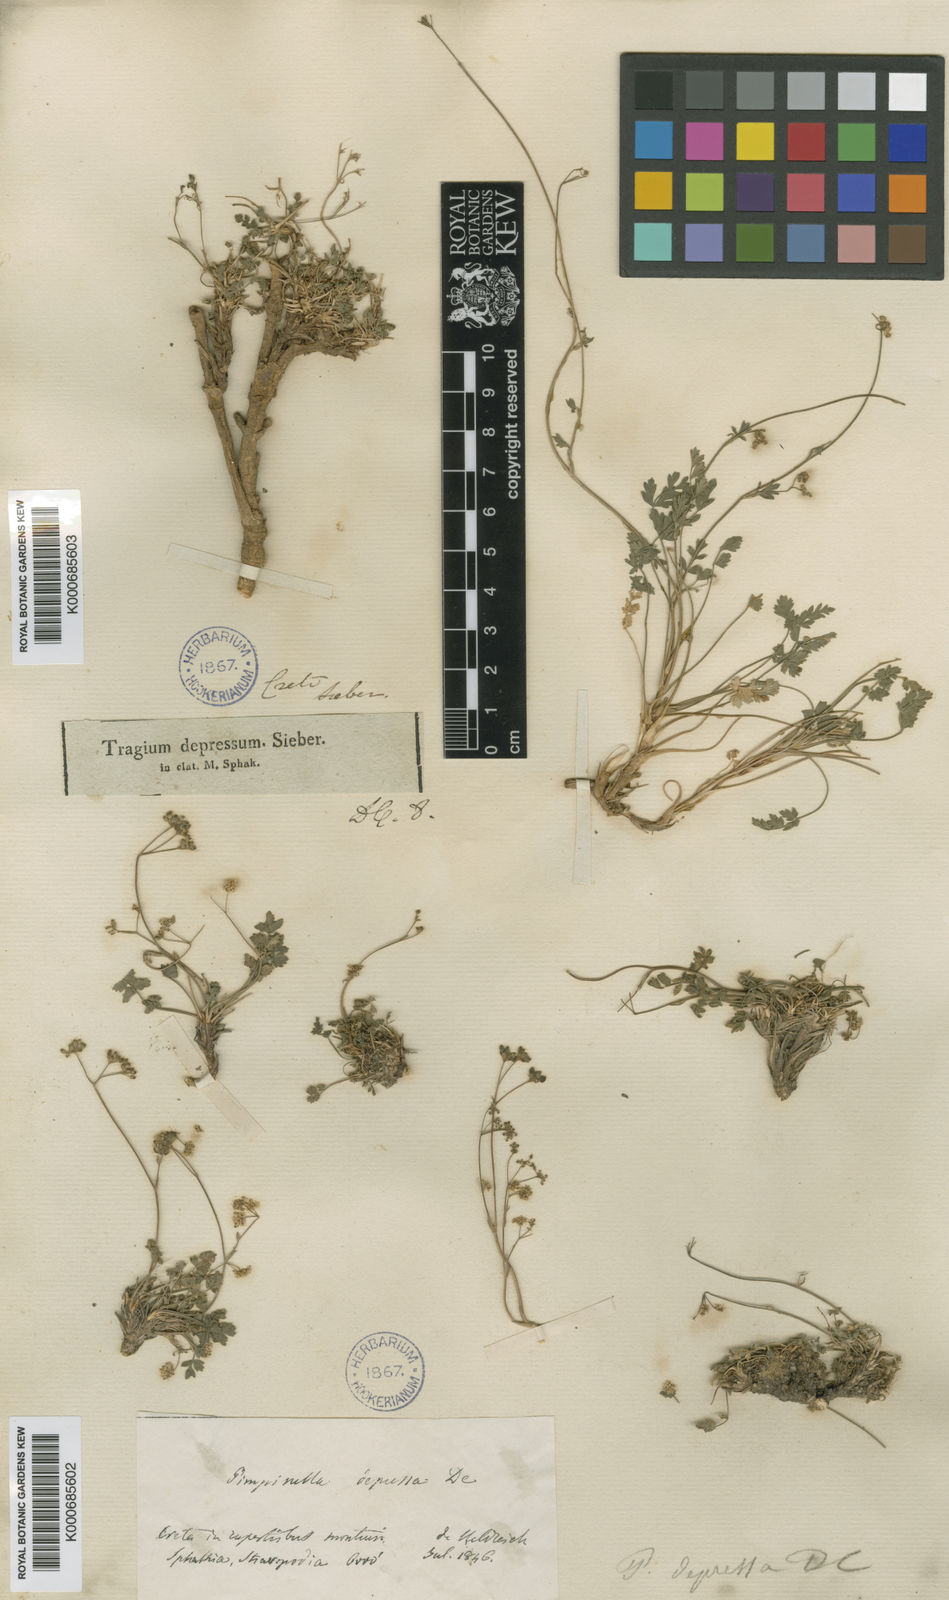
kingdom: Plantae
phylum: Tracheophyta
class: Magnoliopsida
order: Apiales
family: Apiaceae
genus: Pimpinella
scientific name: Pimpinella tragium
